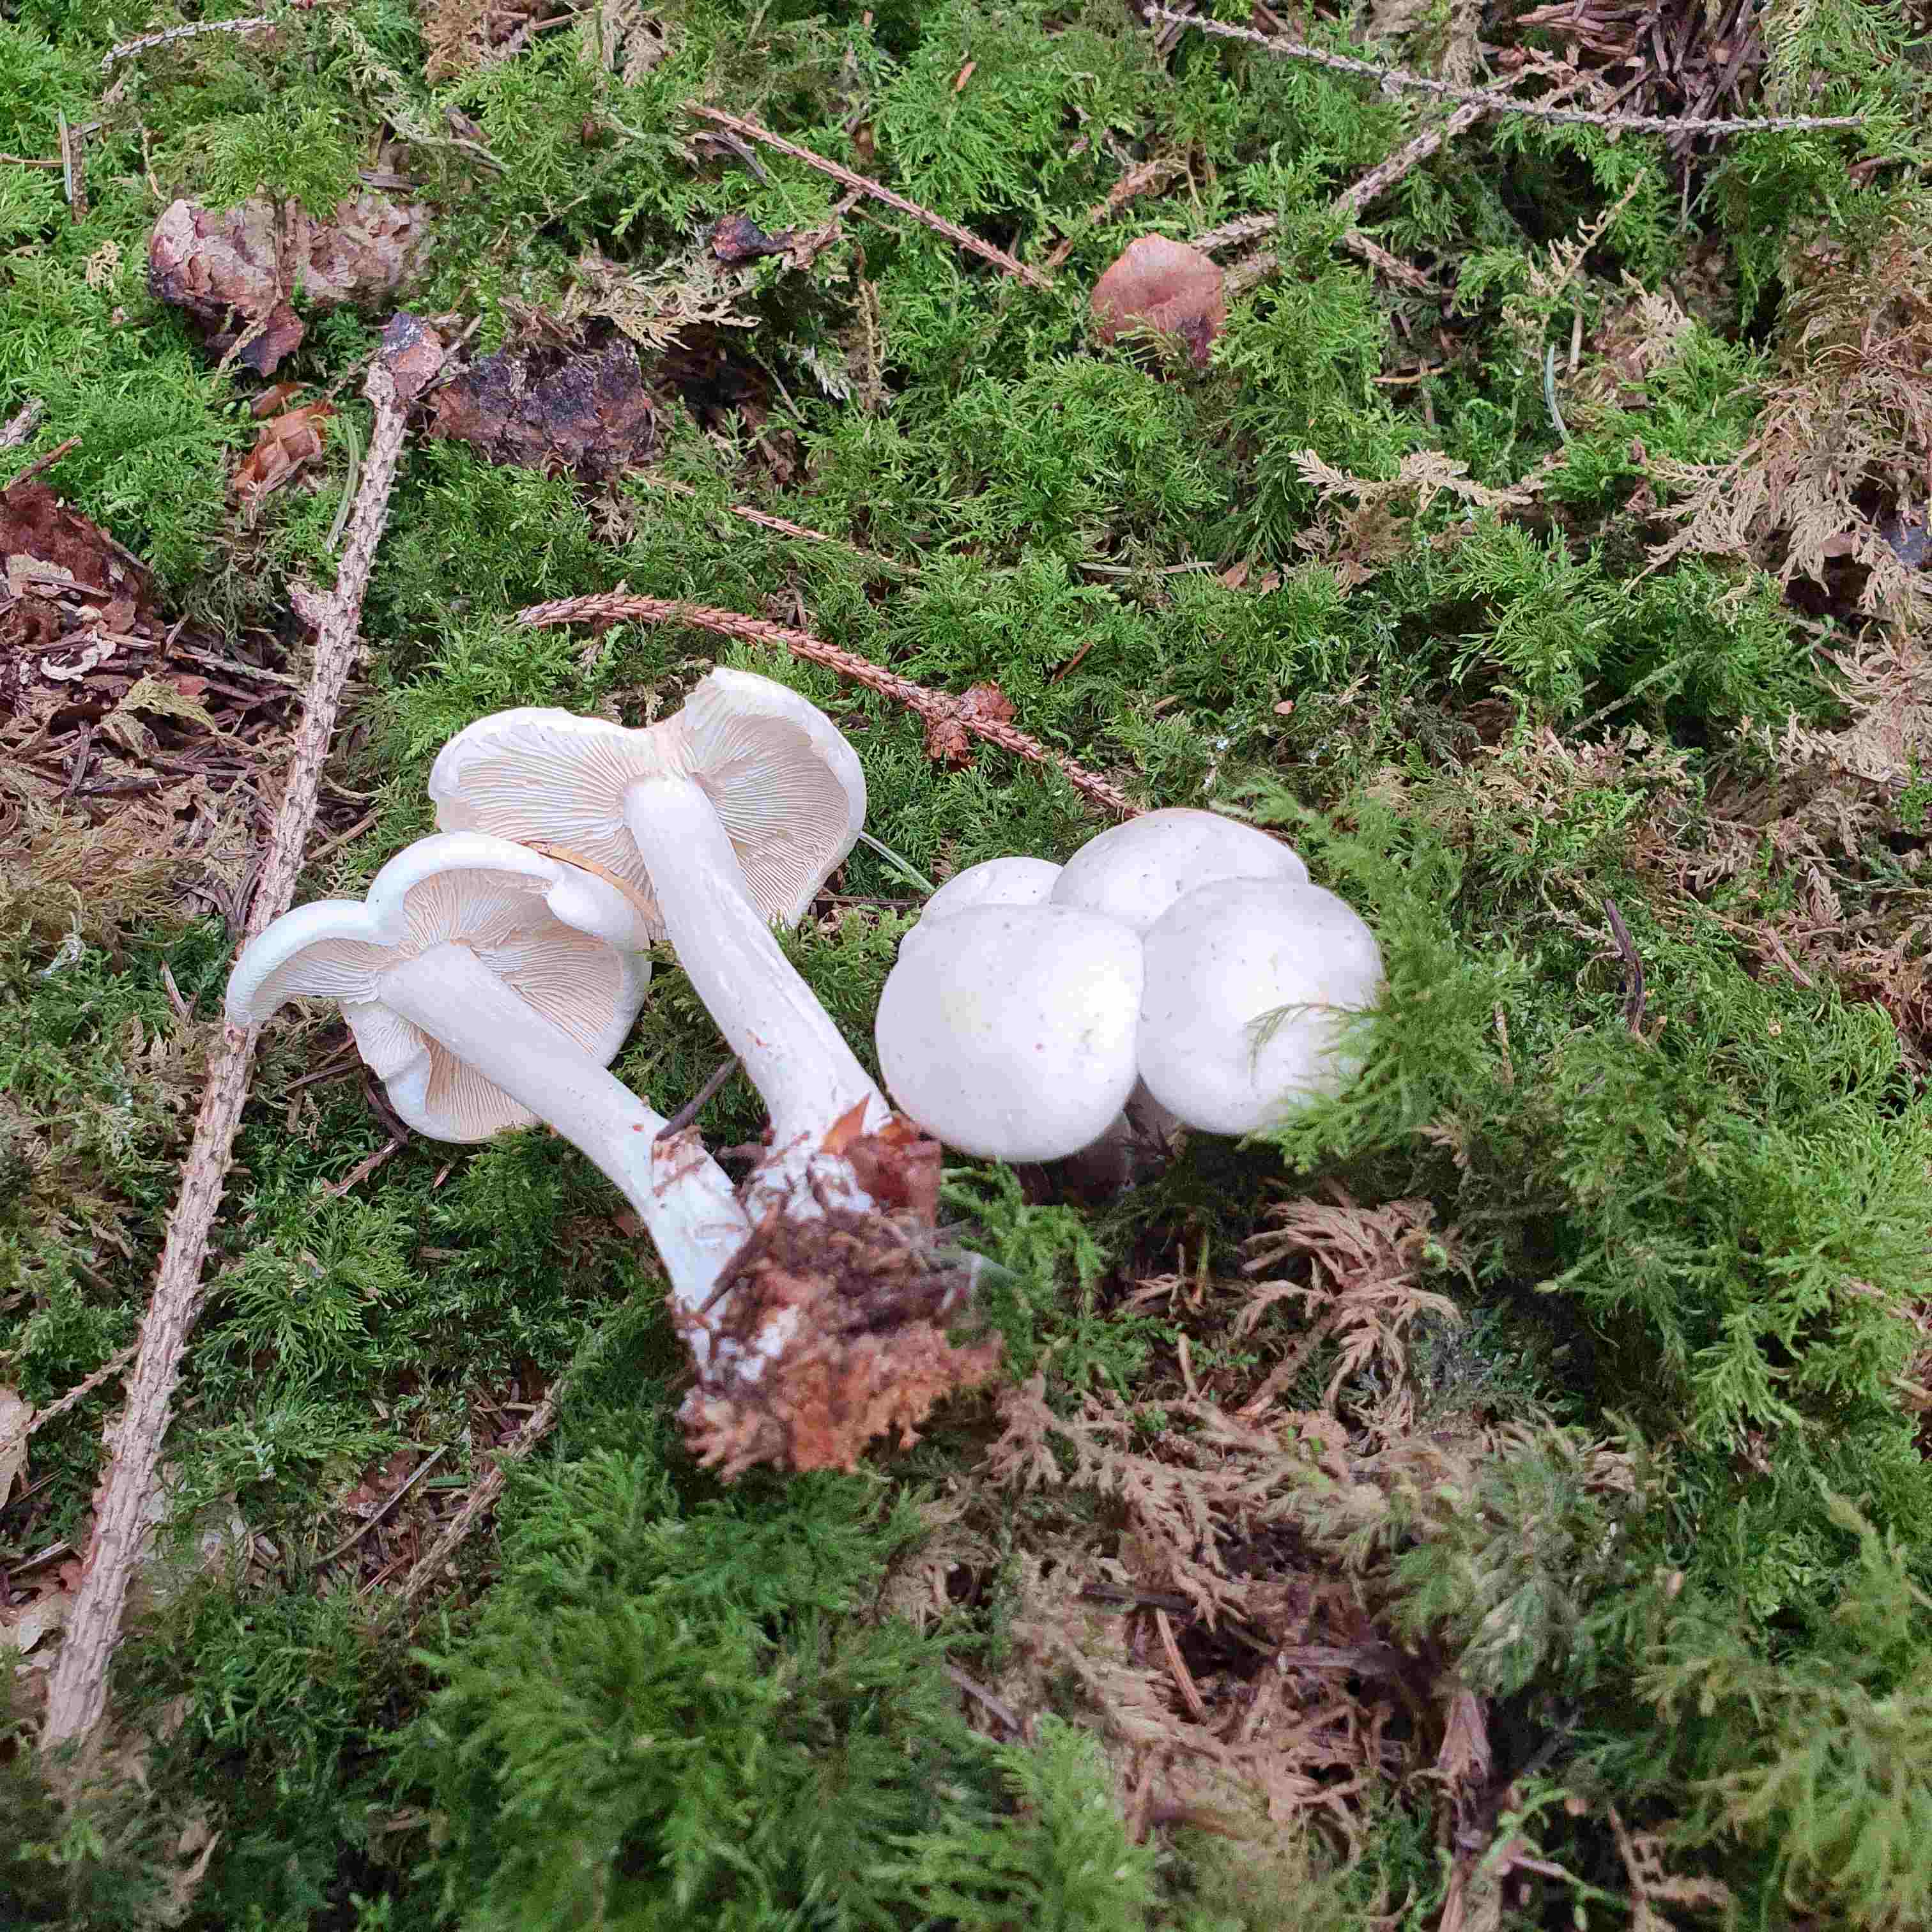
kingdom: Fungi
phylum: Basidiomycota
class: Agaricomycetes
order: Agaricales
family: Omphalotaceae
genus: Rhodocollybia
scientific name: Rhodocollybia maculata
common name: plettet fladhat
